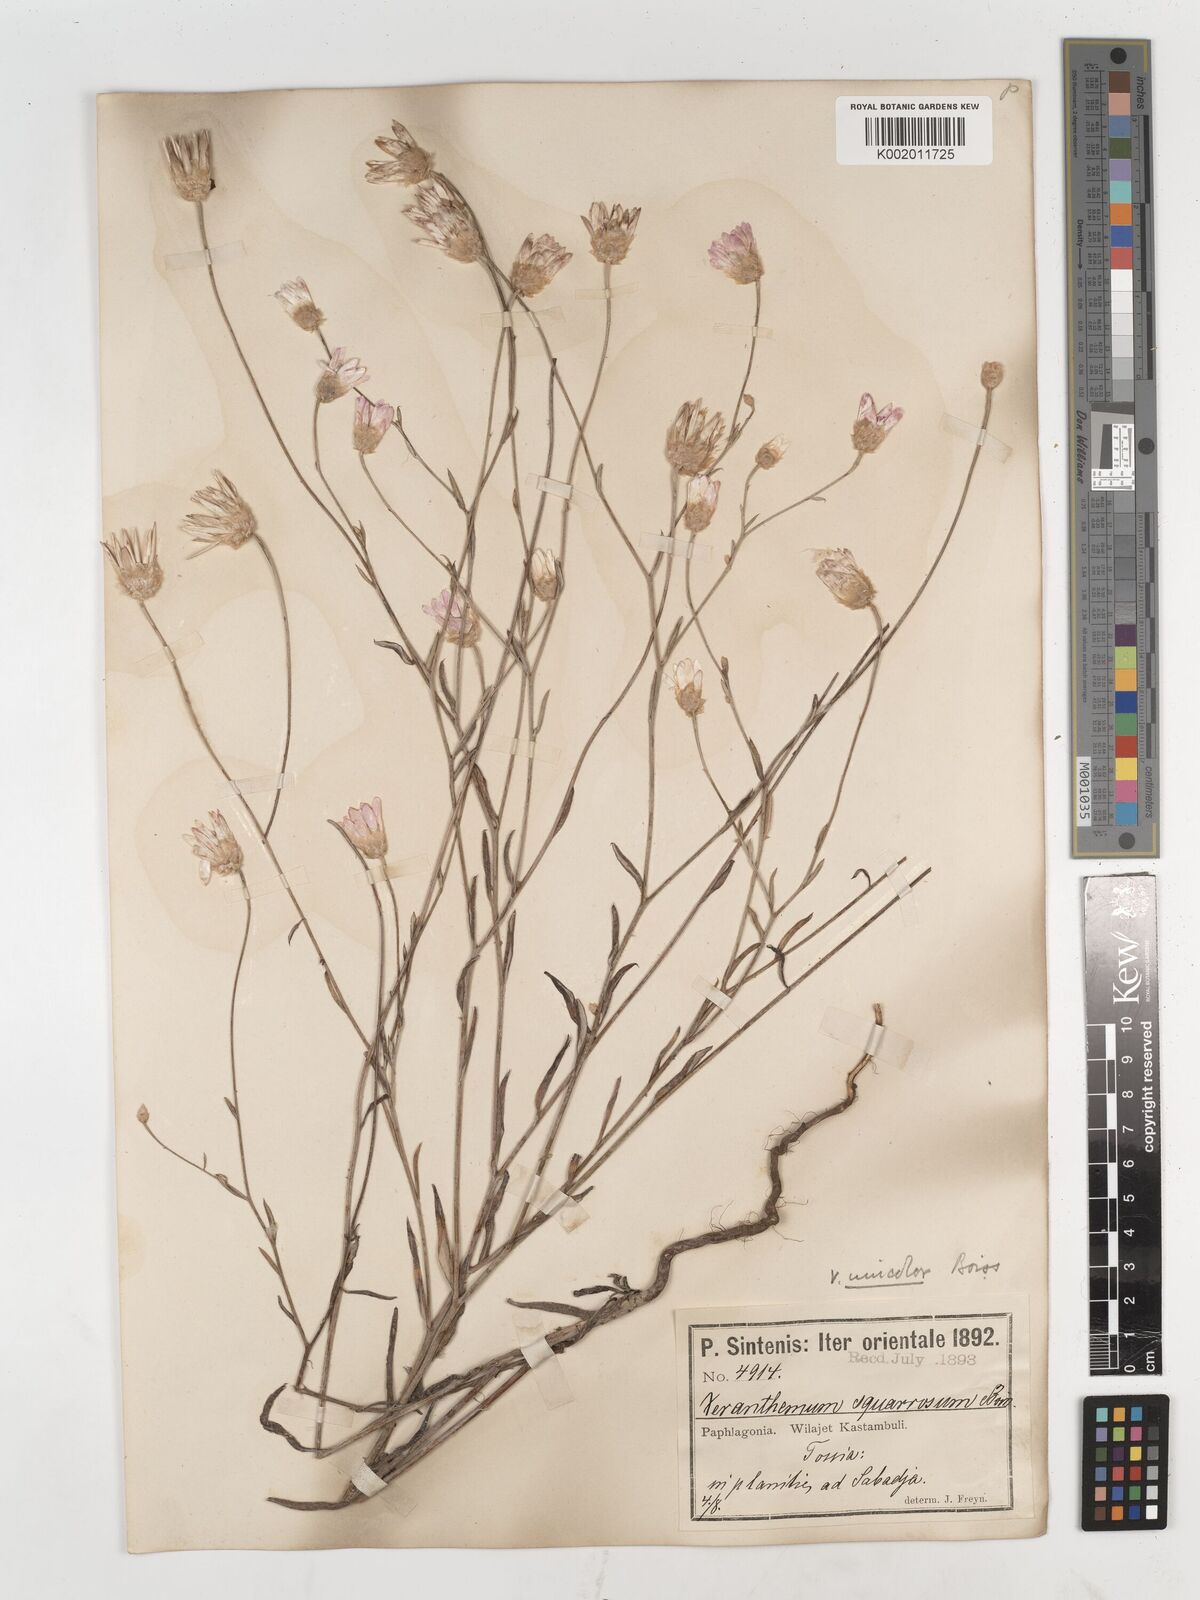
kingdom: Plantae
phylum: Tracheophyta
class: Magnoliopsida
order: Asterales
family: Asteraceae
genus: Xeranthemum
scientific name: Xeranthemum squarrosum
